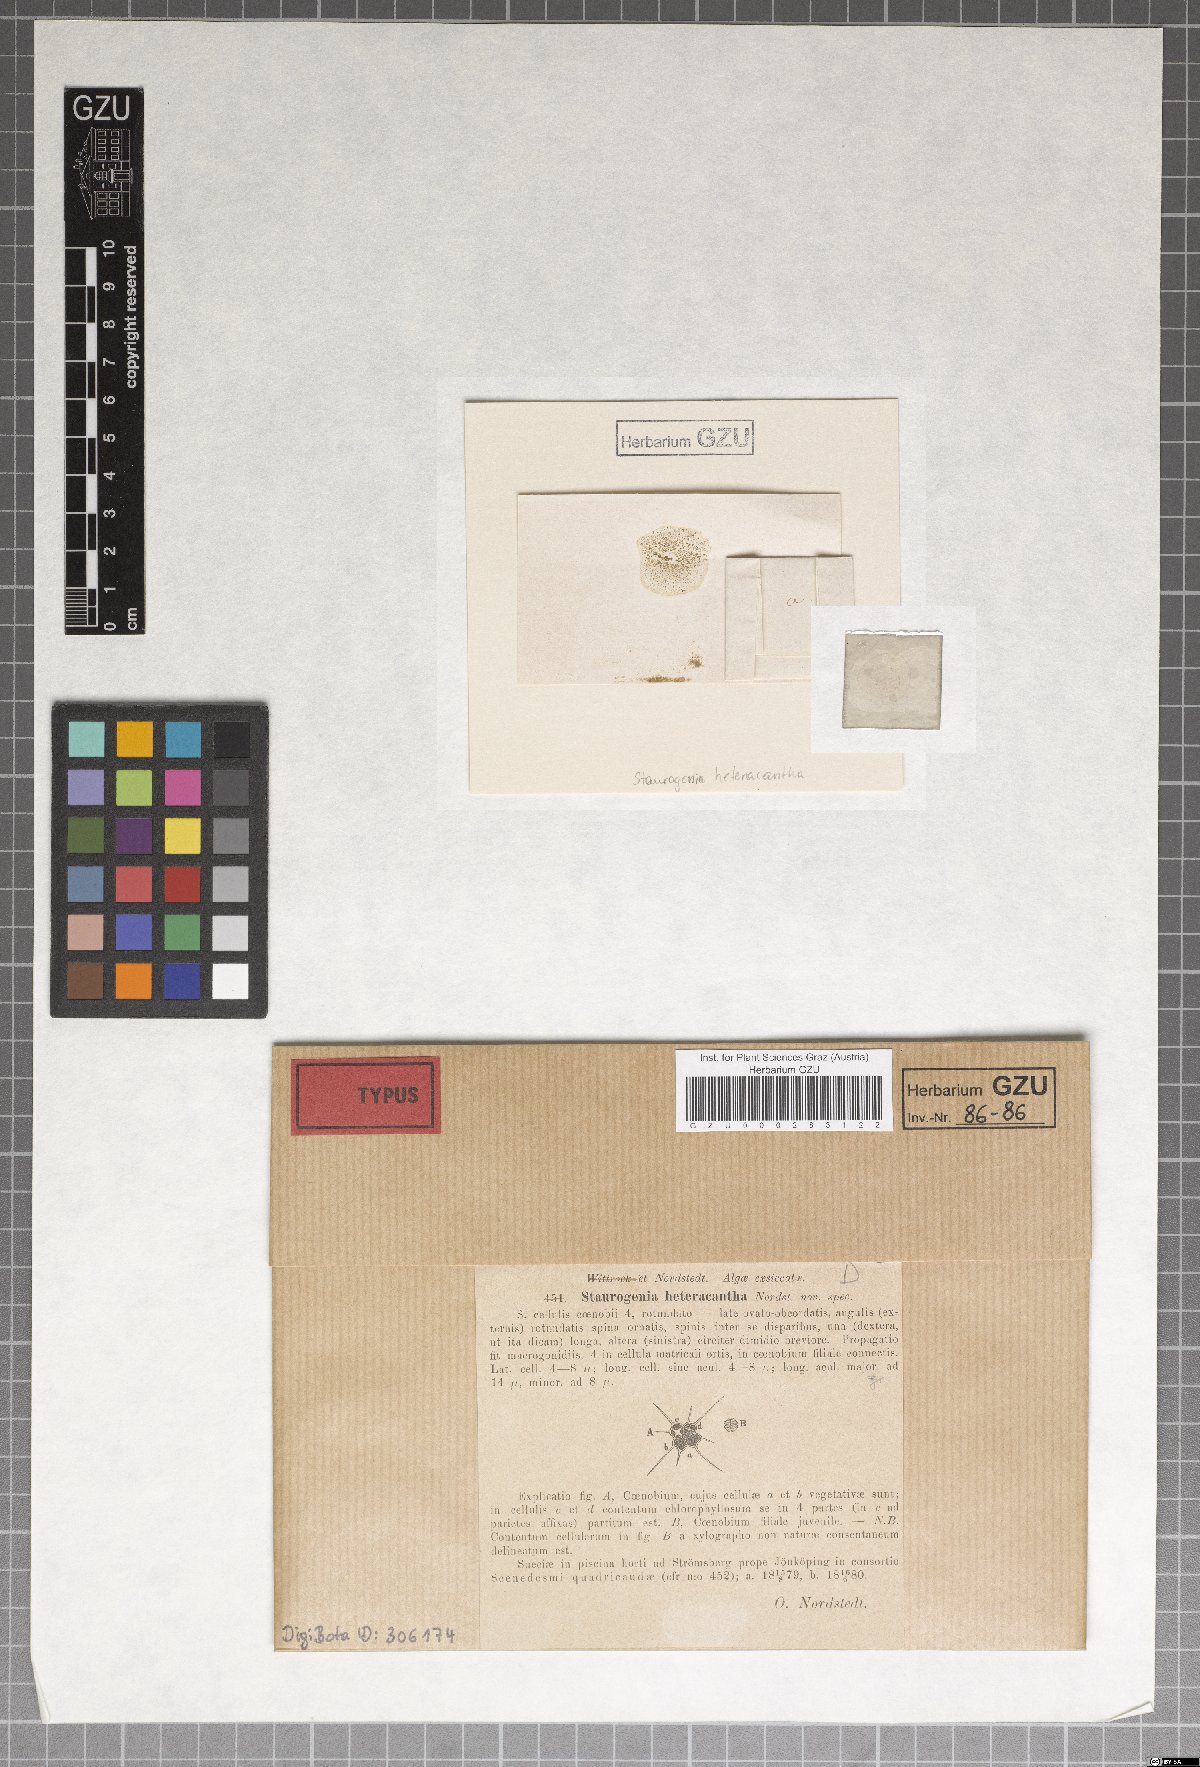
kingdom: Plantae
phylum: Chlorophyta
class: Chlorophyceae
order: Sphaeropleales
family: Scenedesmaceae
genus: Tetrastrum
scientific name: Tetrastrum heteracanthum
